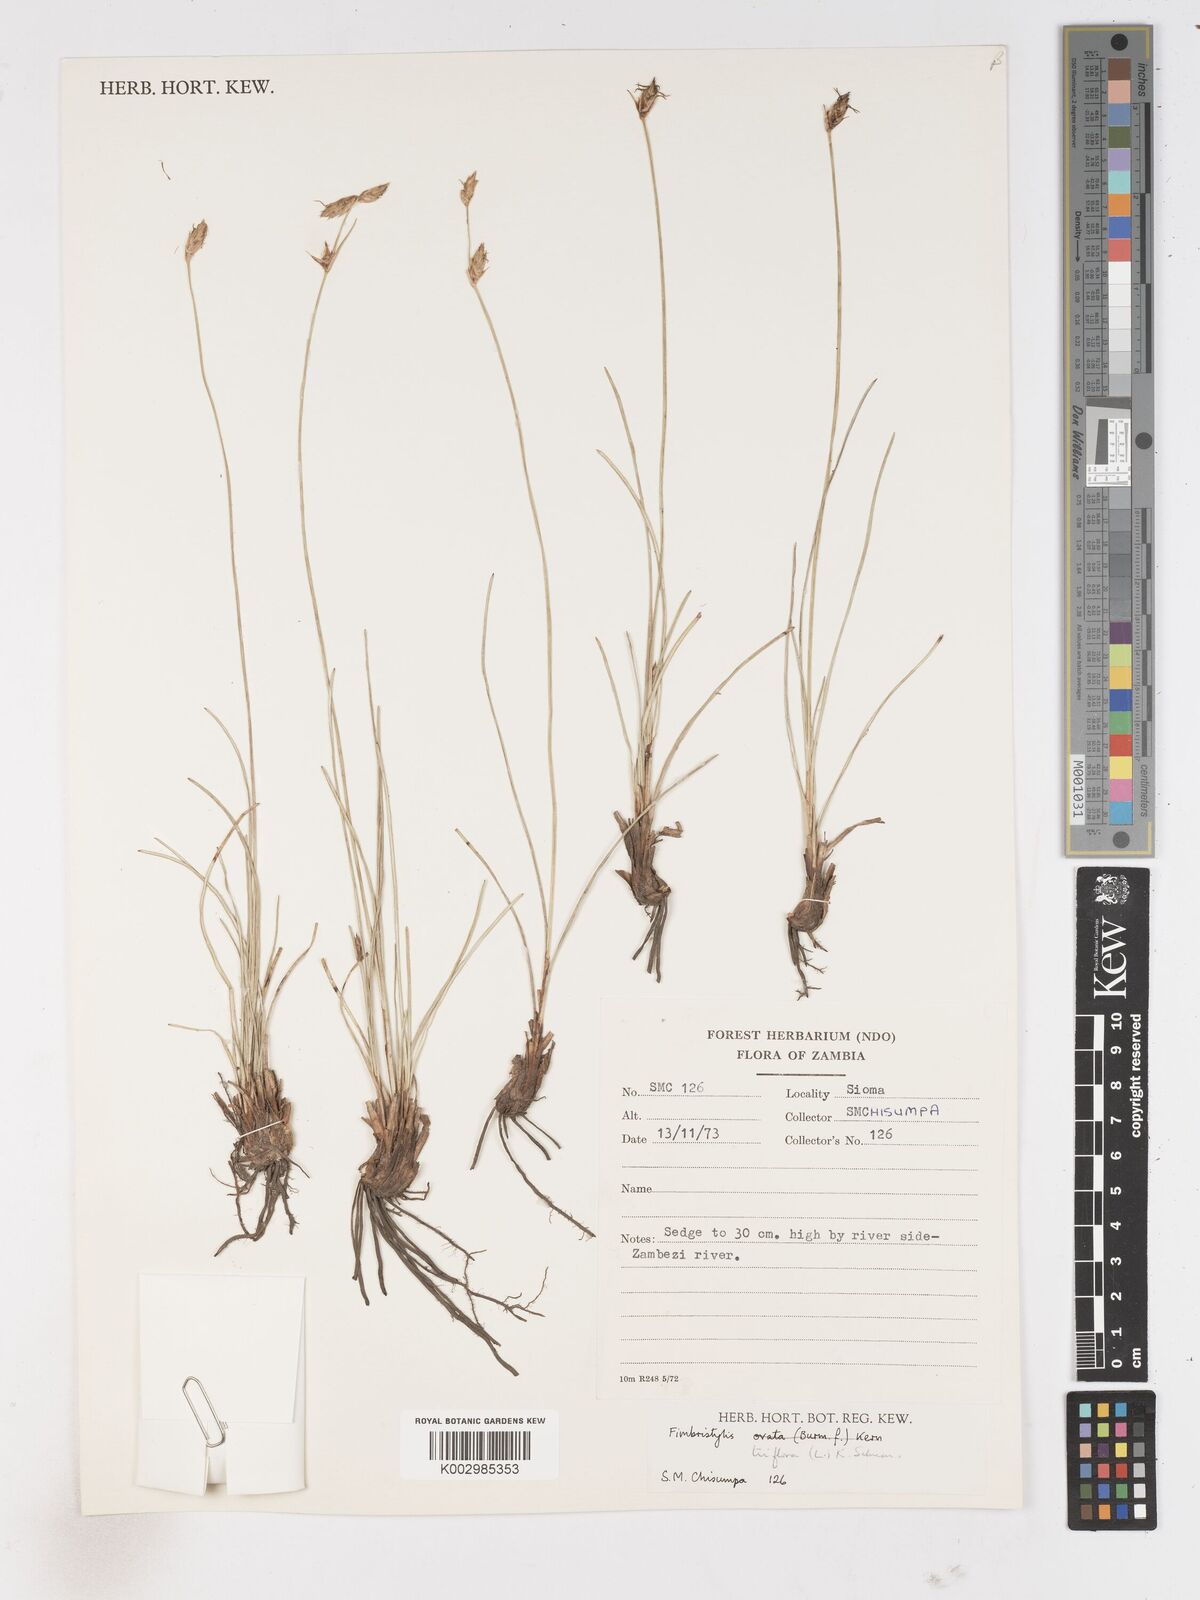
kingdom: Plantae
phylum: Tracheophyta
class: Liliopsida
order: Poales
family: Cyperaceae
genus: Abildgaardia
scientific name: Abildgaardia triflora
